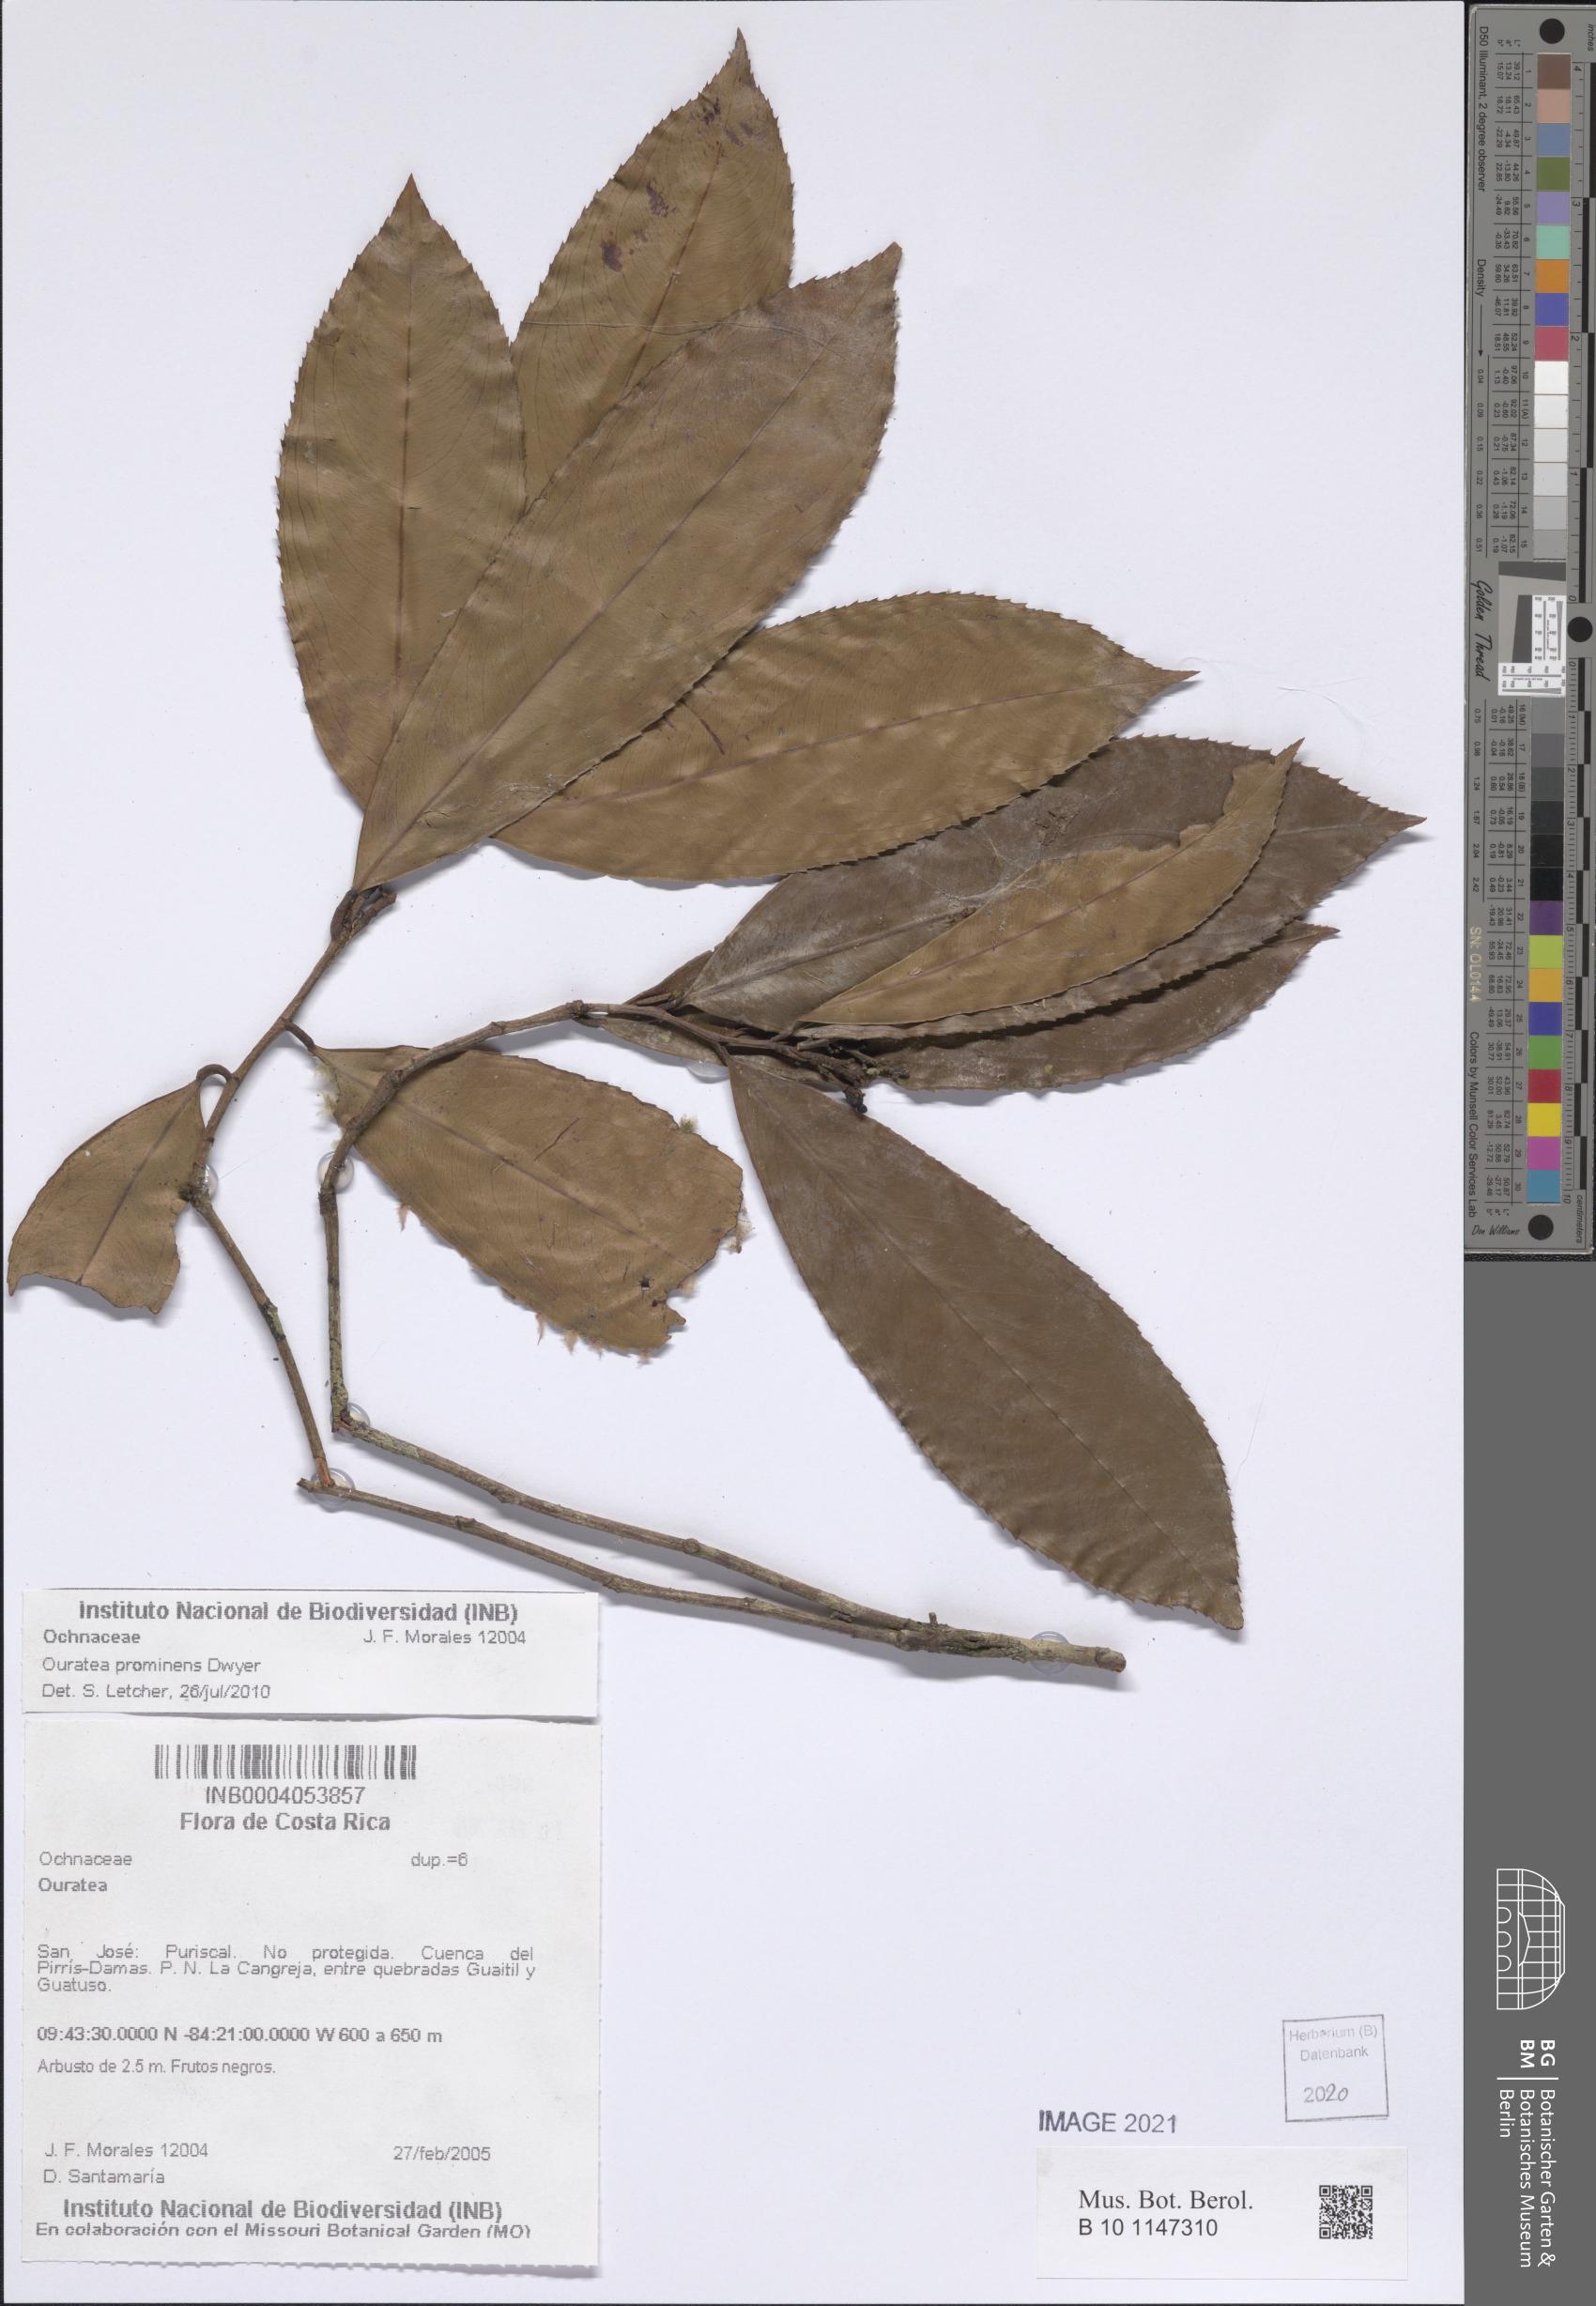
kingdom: Plantae
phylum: Tracheophyta
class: Magnoliopsida
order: Malpighiales
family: Ochnaceae
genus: Ouratea
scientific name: Ouratea prominens
